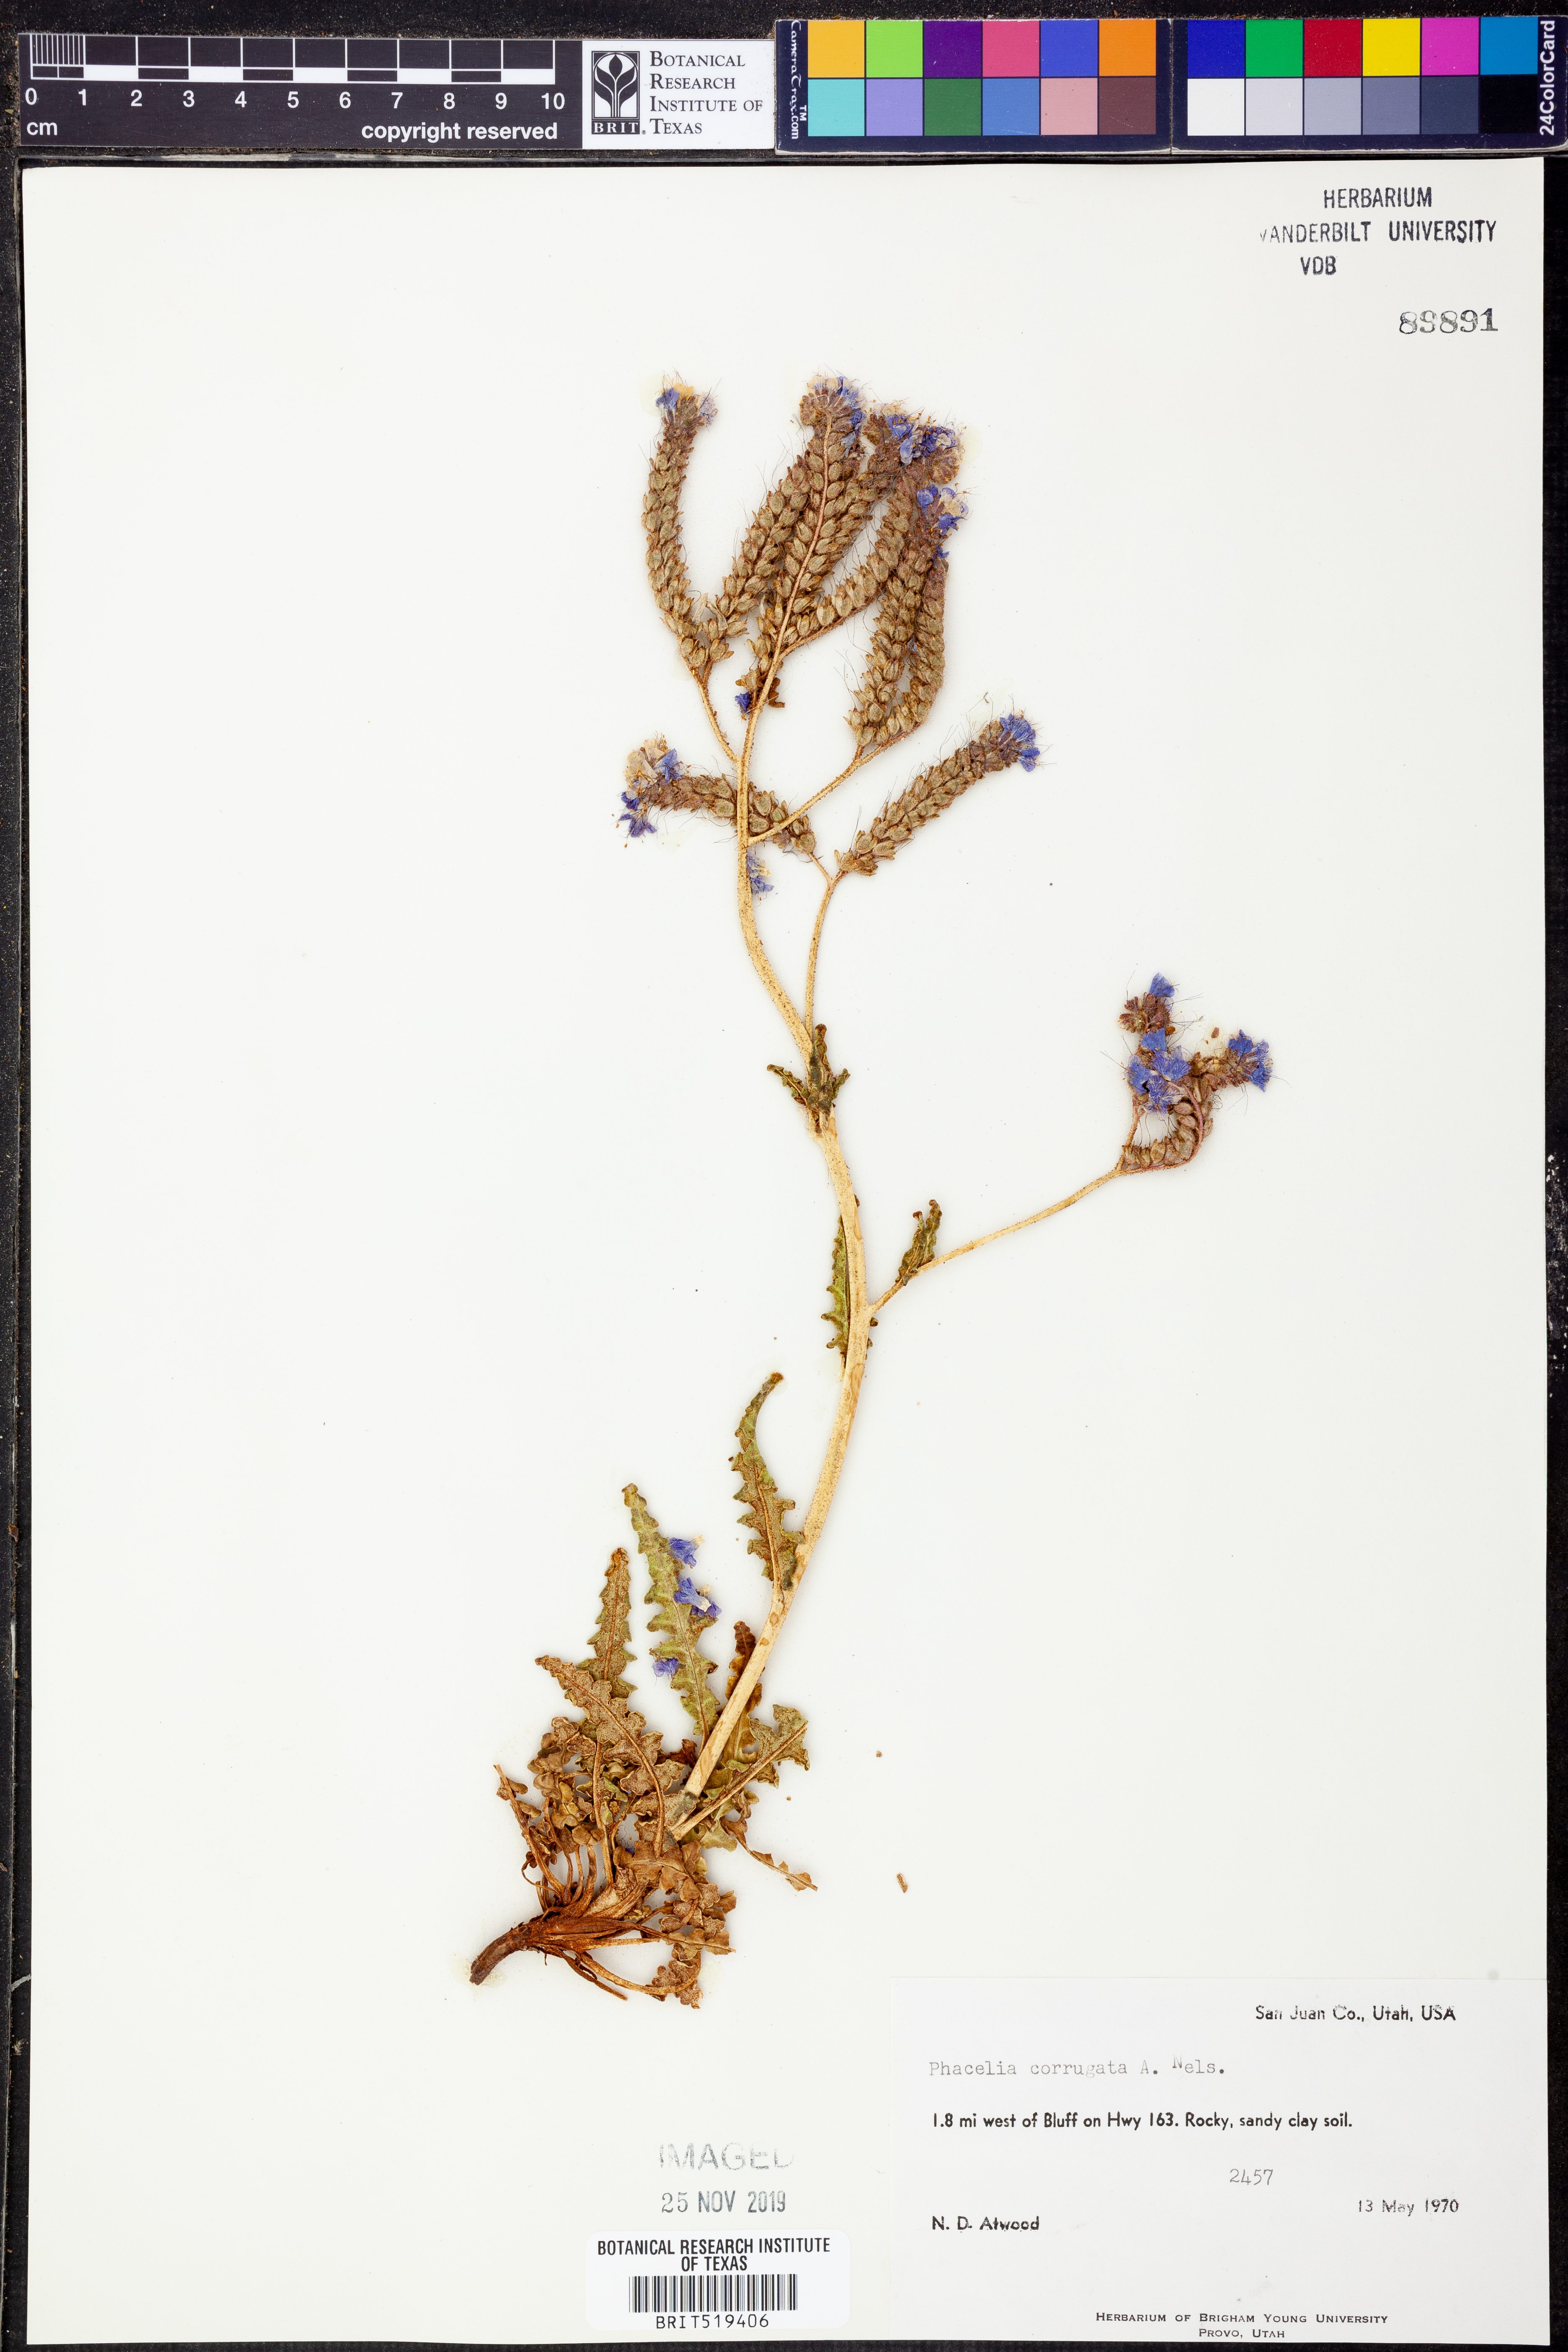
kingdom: Plantae
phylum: Tracheophyta
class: Magnoliopsida
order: Boraginales
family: Hydrophyllaceae
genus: Phacelia
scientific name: Phacelia corrugata
